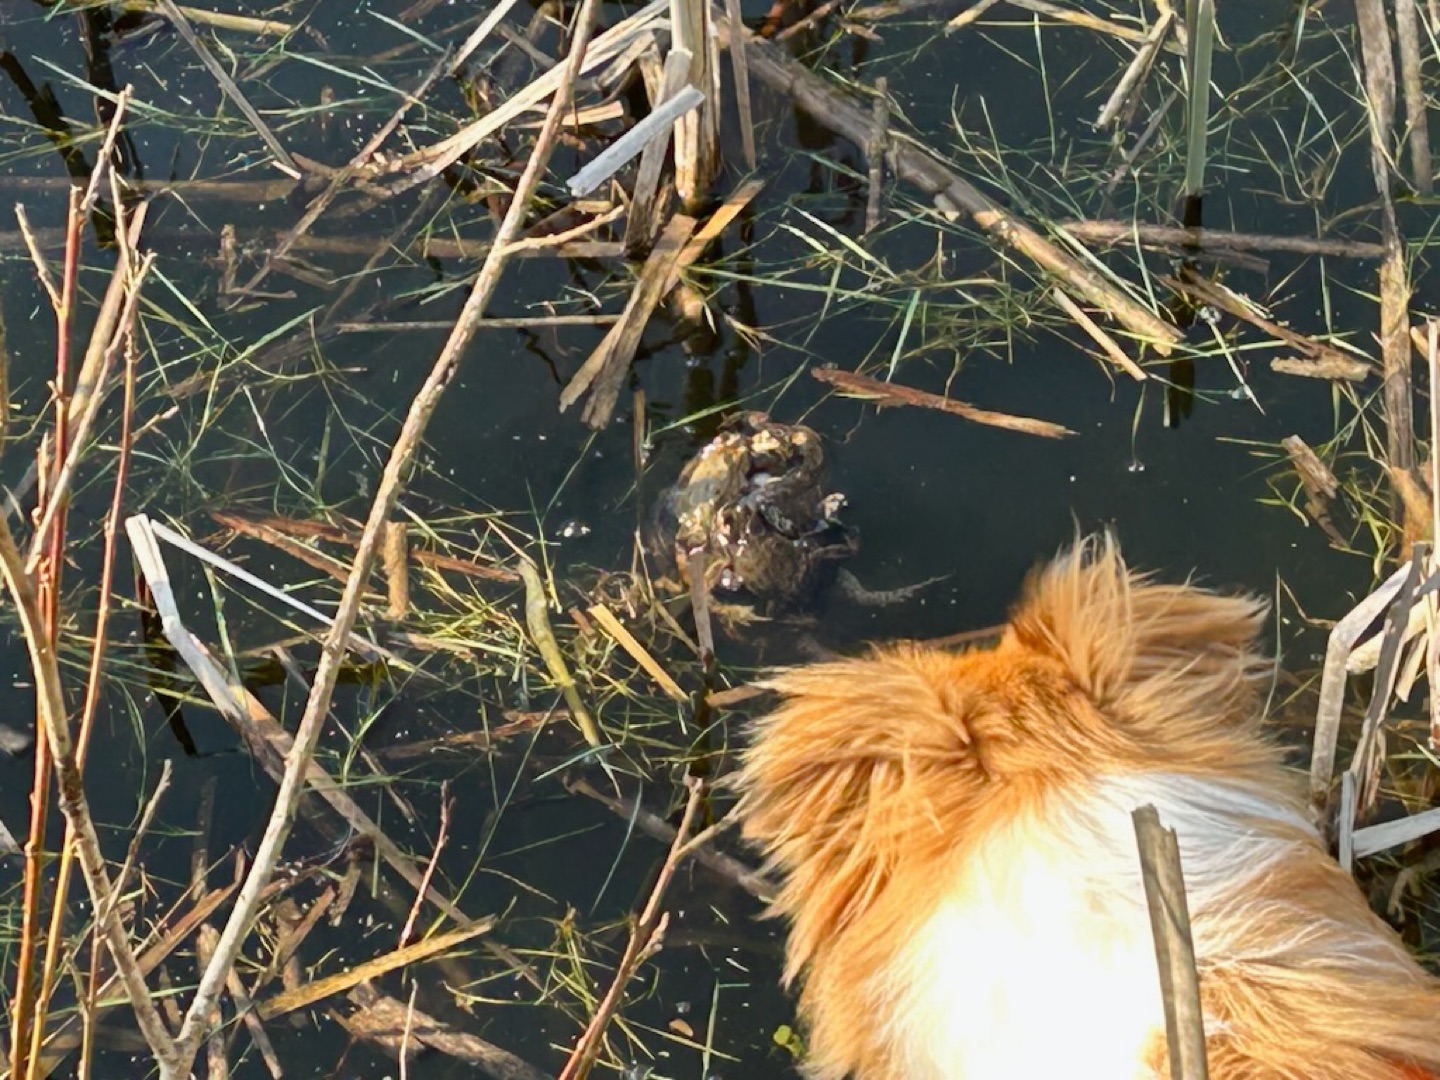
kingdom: Animalia
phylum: Chordata
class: Amphibia
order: Anura
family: Bufonidae
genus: Bufo
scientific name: Bufo bufo
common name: Skrubtudse
